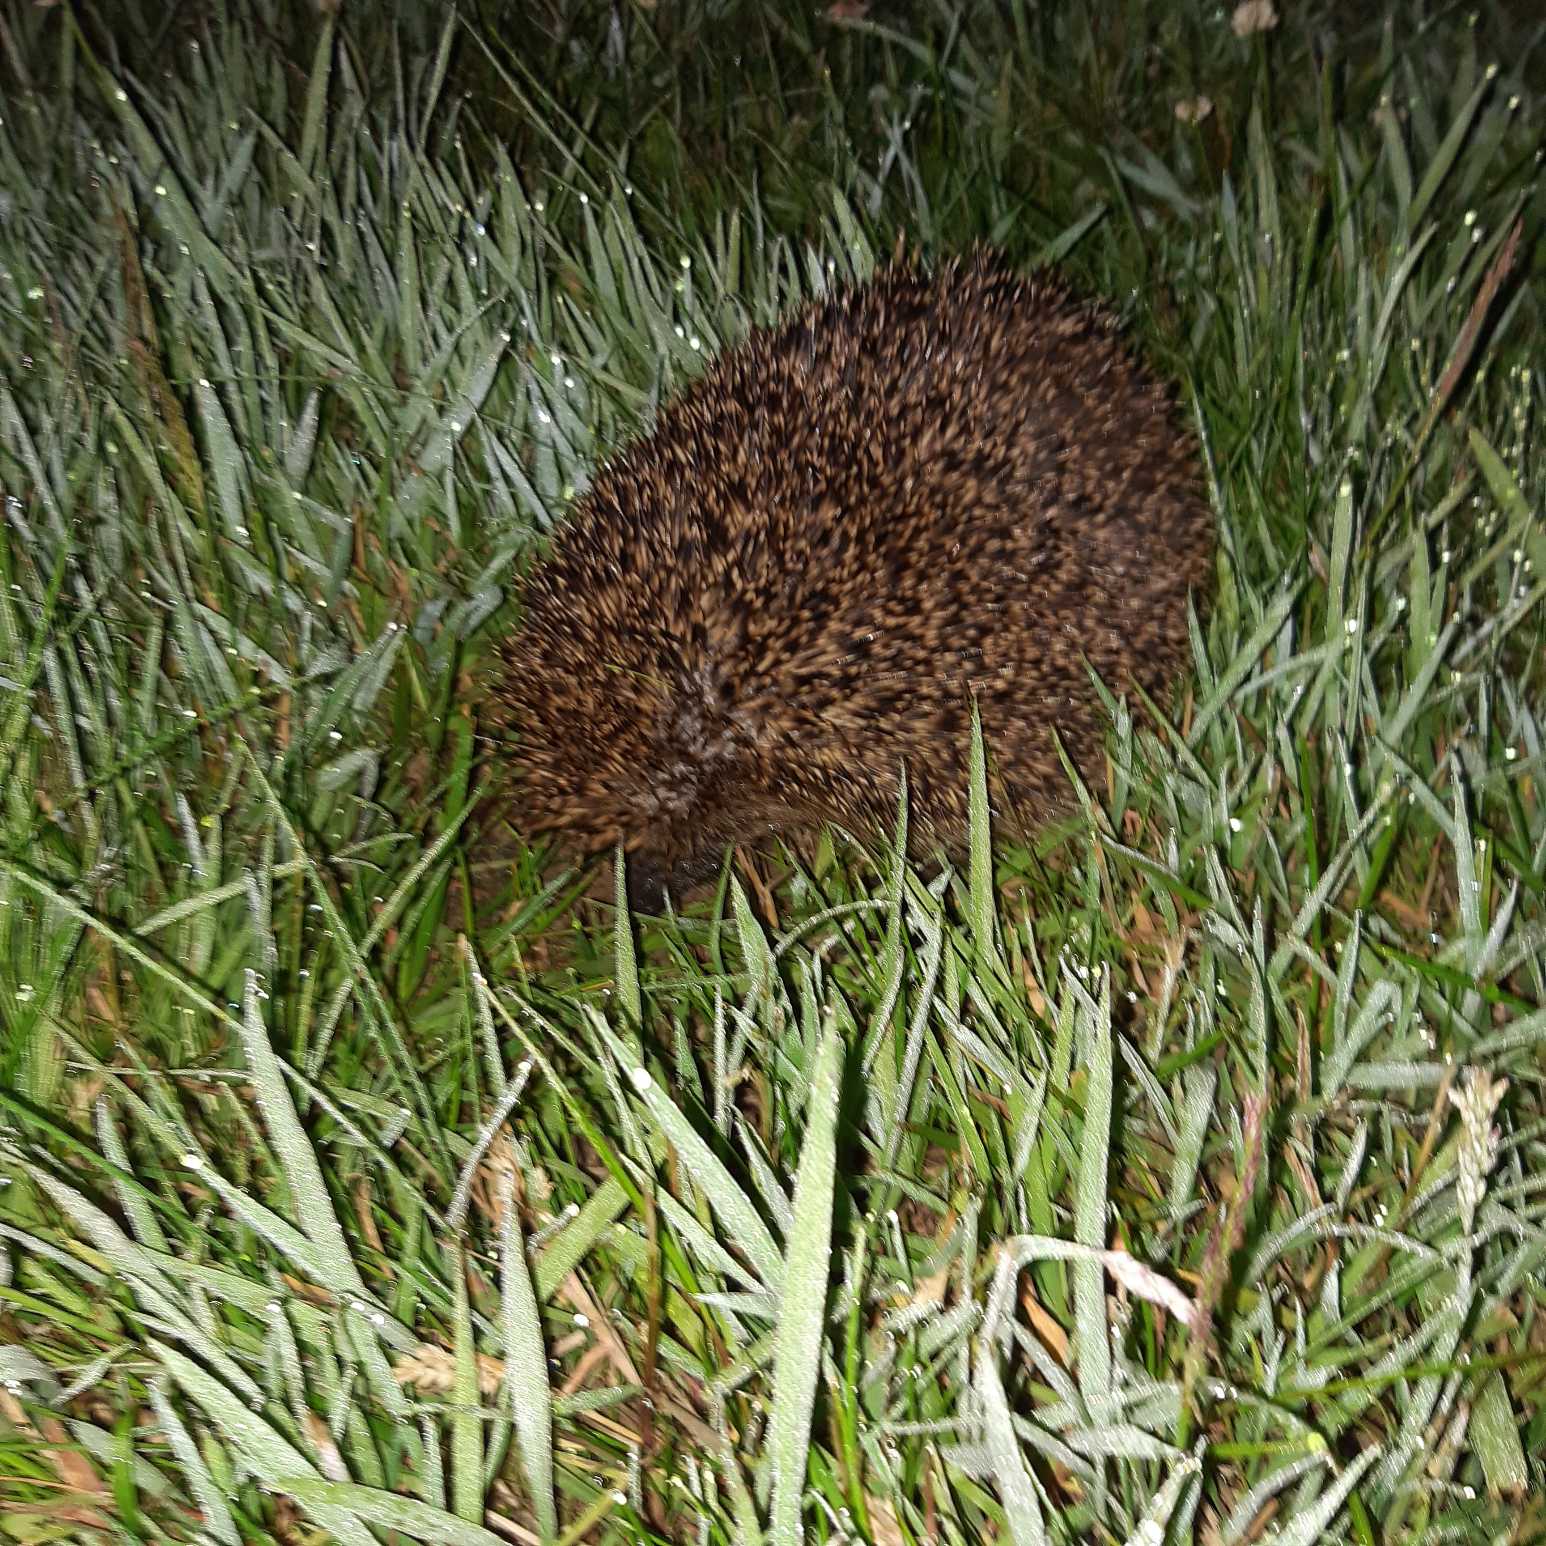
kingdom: Animalia
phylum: Chordata
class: Mammalia
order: Erinaceomorpha
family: Erinaceidae
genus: Erinaceus
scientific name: Erinaceus europaeus
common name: Pindsvin
